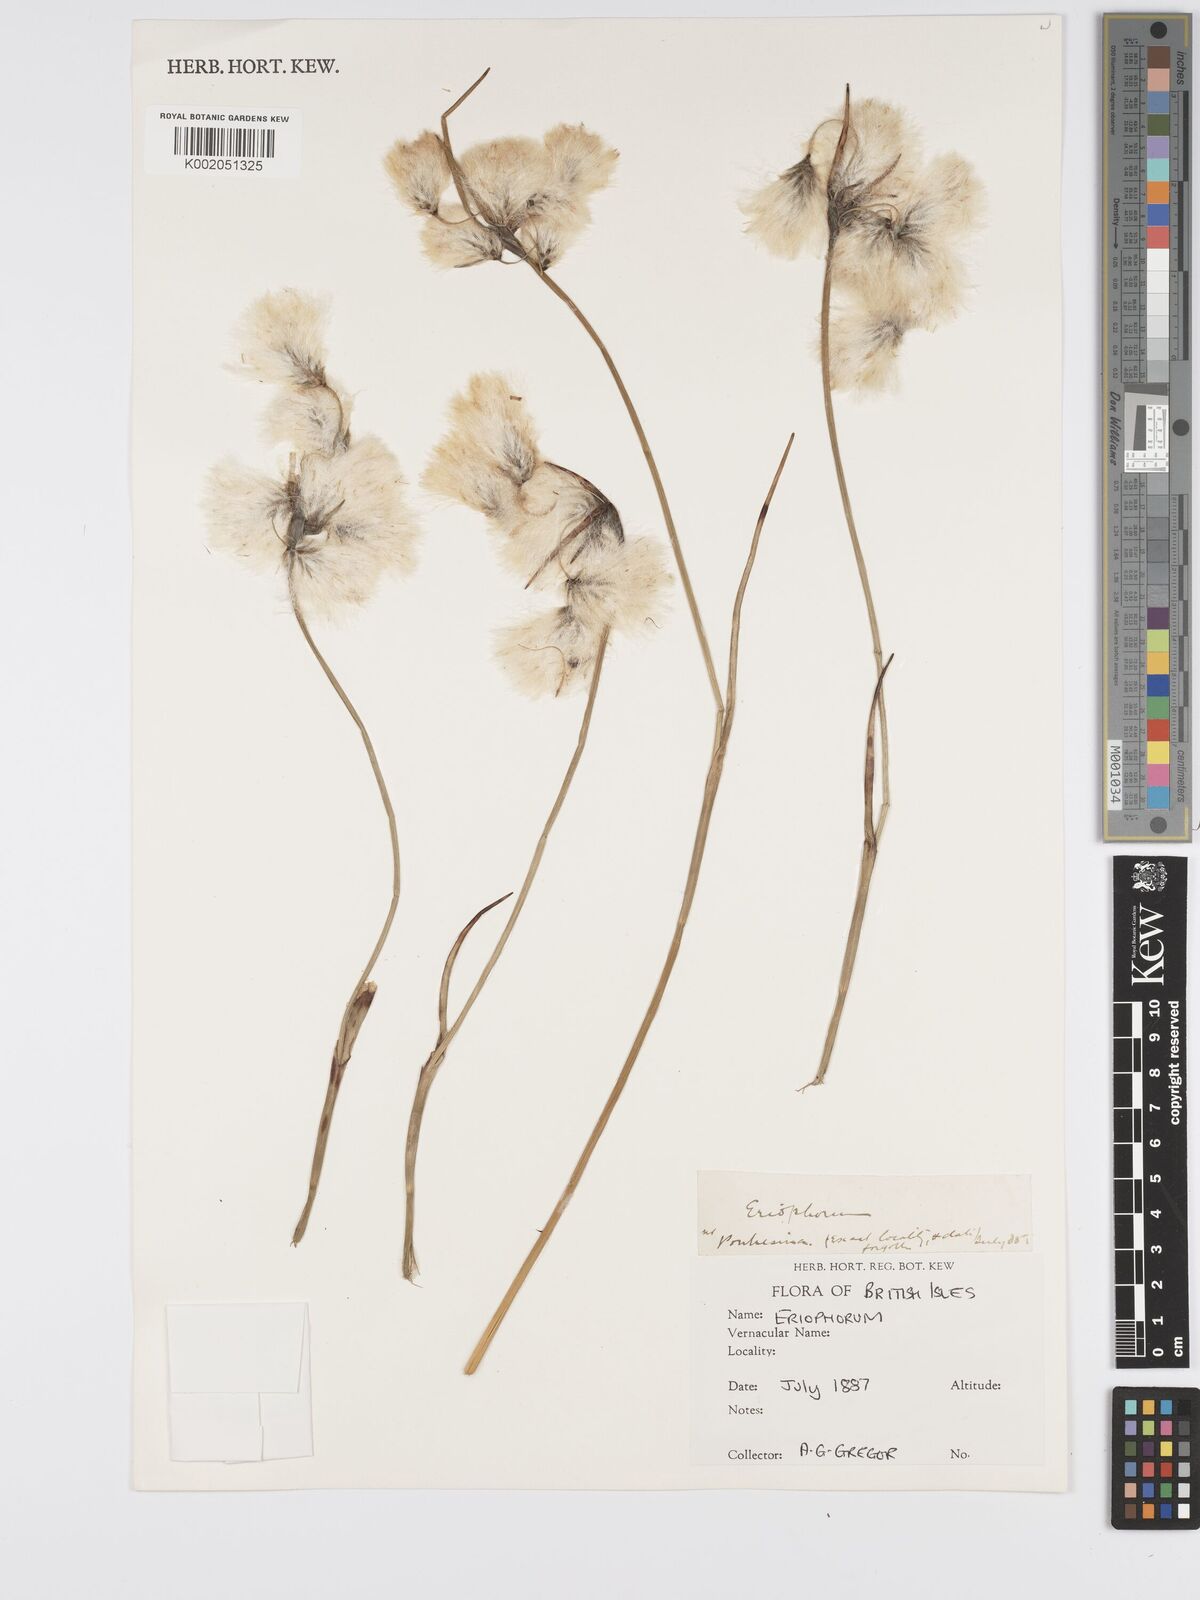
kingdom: Plantae
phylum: Tracheophyta
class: Liliopsida
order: Poales
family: Cyperaceae
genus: Eriophorum
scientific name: Eriophorum
